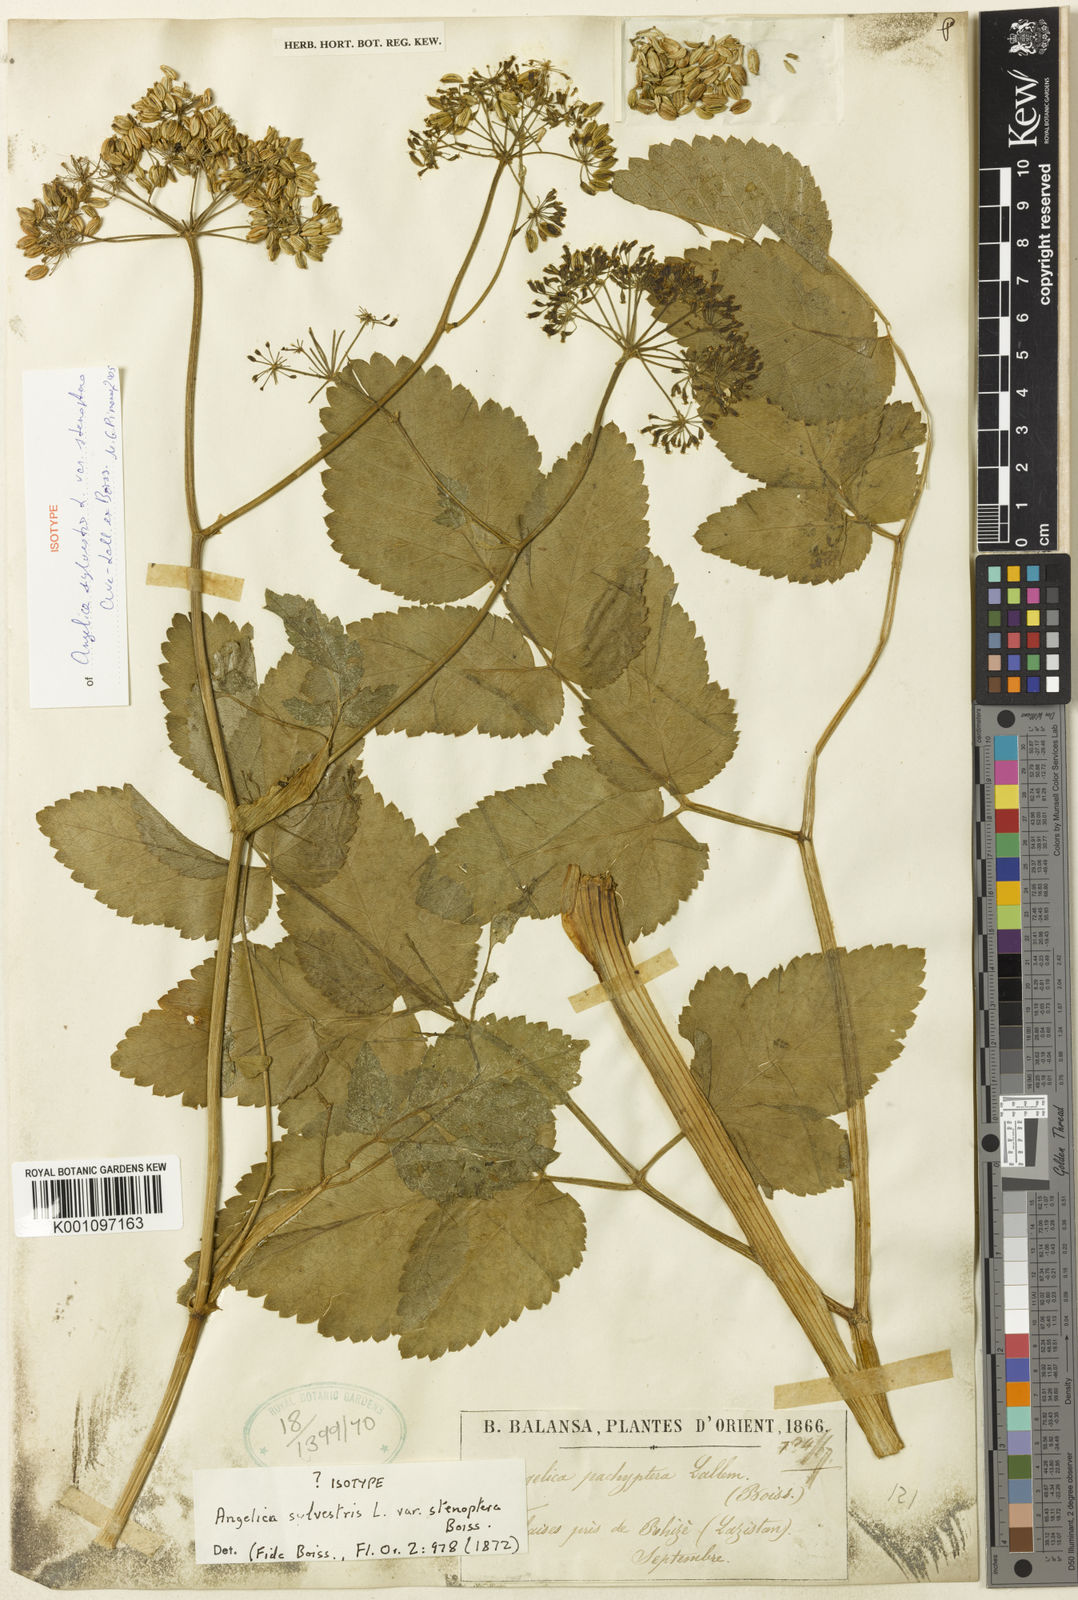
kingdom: Plantae
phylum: Tracheophyta
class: Magnoliopsida
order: Apiales
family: Apiaceae
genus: Angelica
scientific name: Angelica sylvestris
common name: Wild angelica
